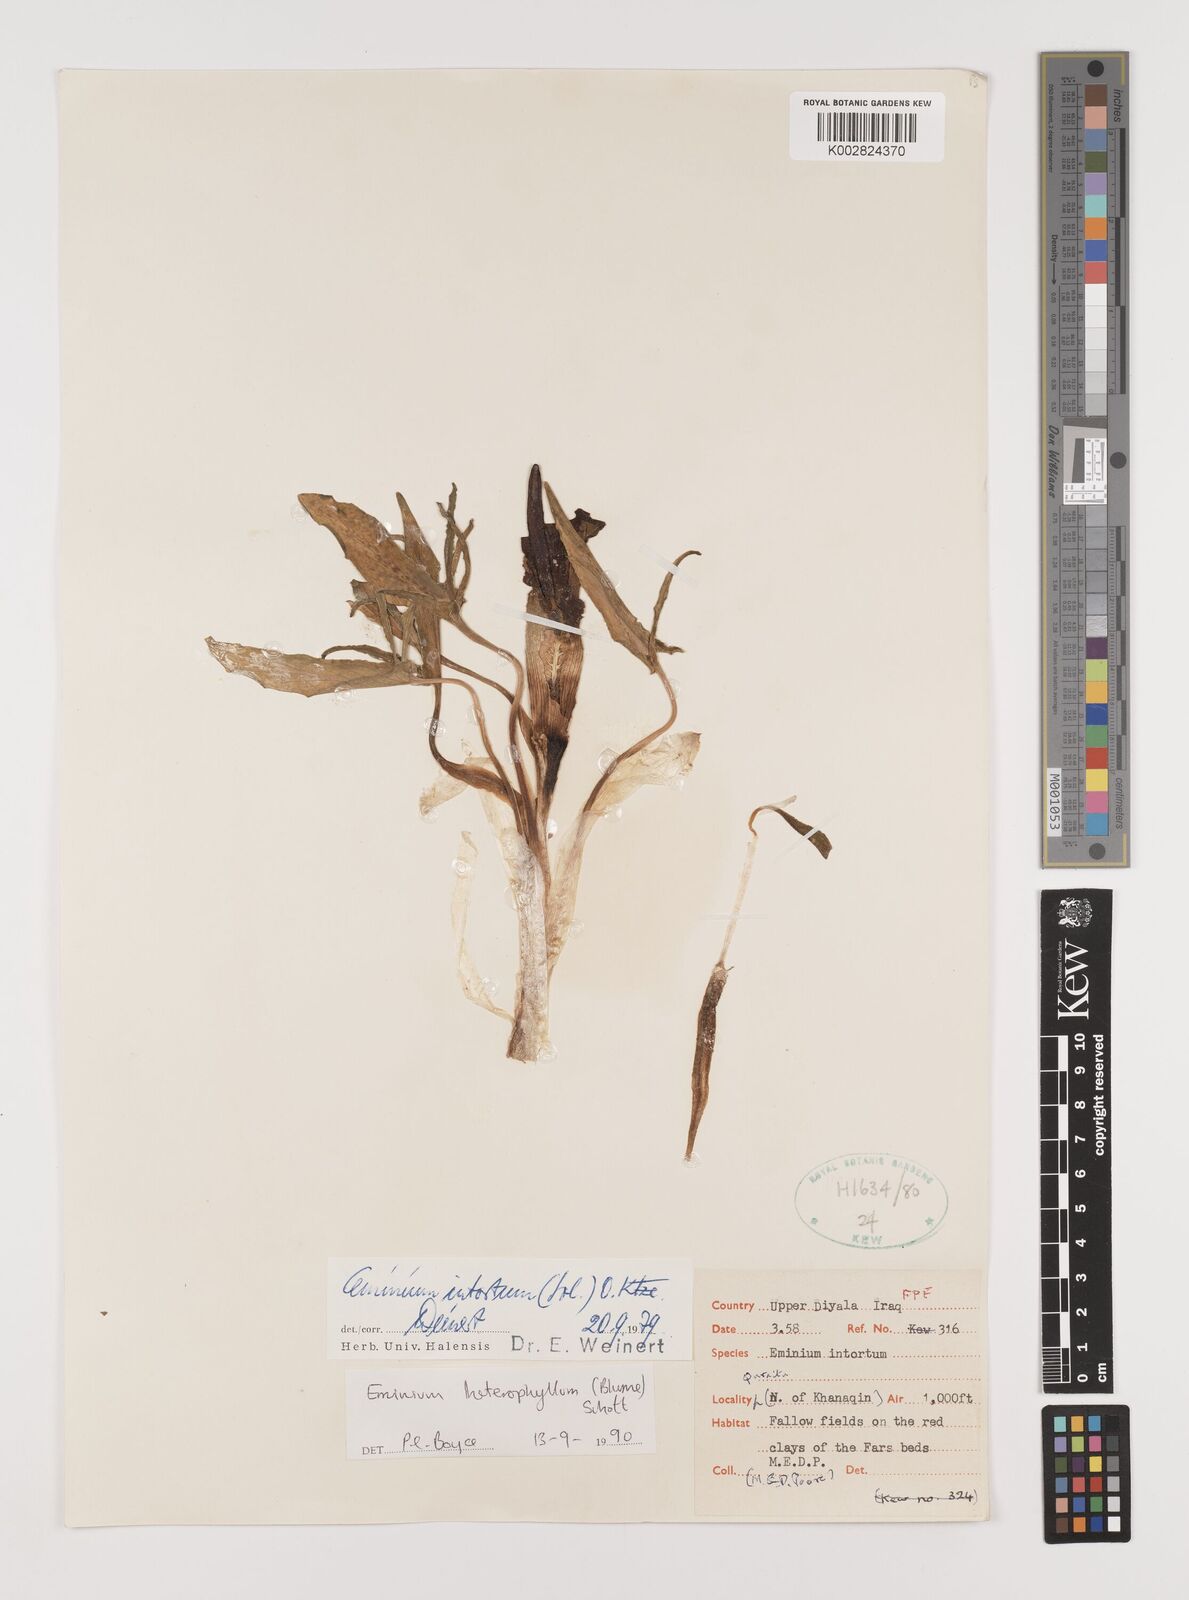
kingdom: Plantae
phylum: Tracheophyta
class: Liliopsida
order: Alismatales
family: Araceae
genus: Eminium
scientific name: Eminium rauwolffii
